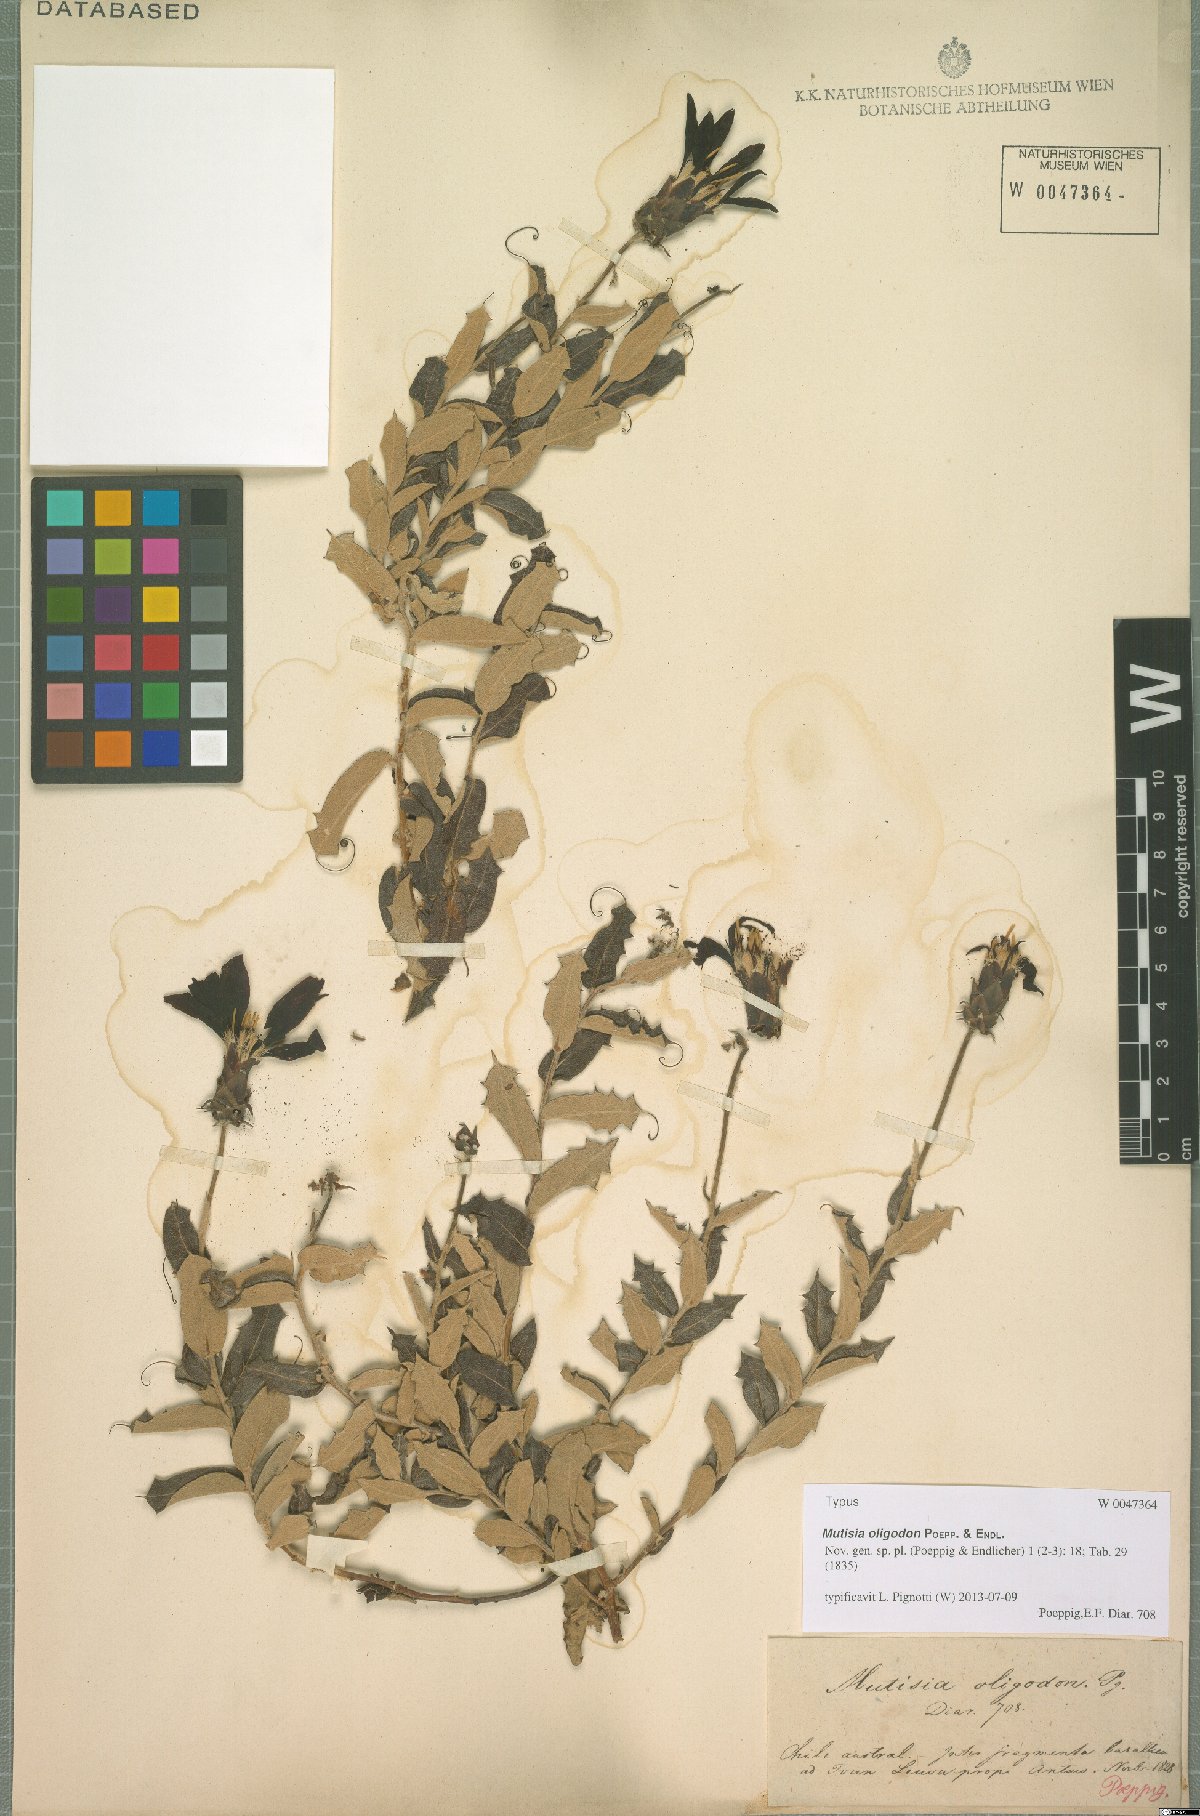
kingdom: Plantae
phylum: Tracheophyta
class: Magnoliopsida
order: Asterales
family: Asteraceae
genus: Mutisia
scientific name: Mutisia oligodon
